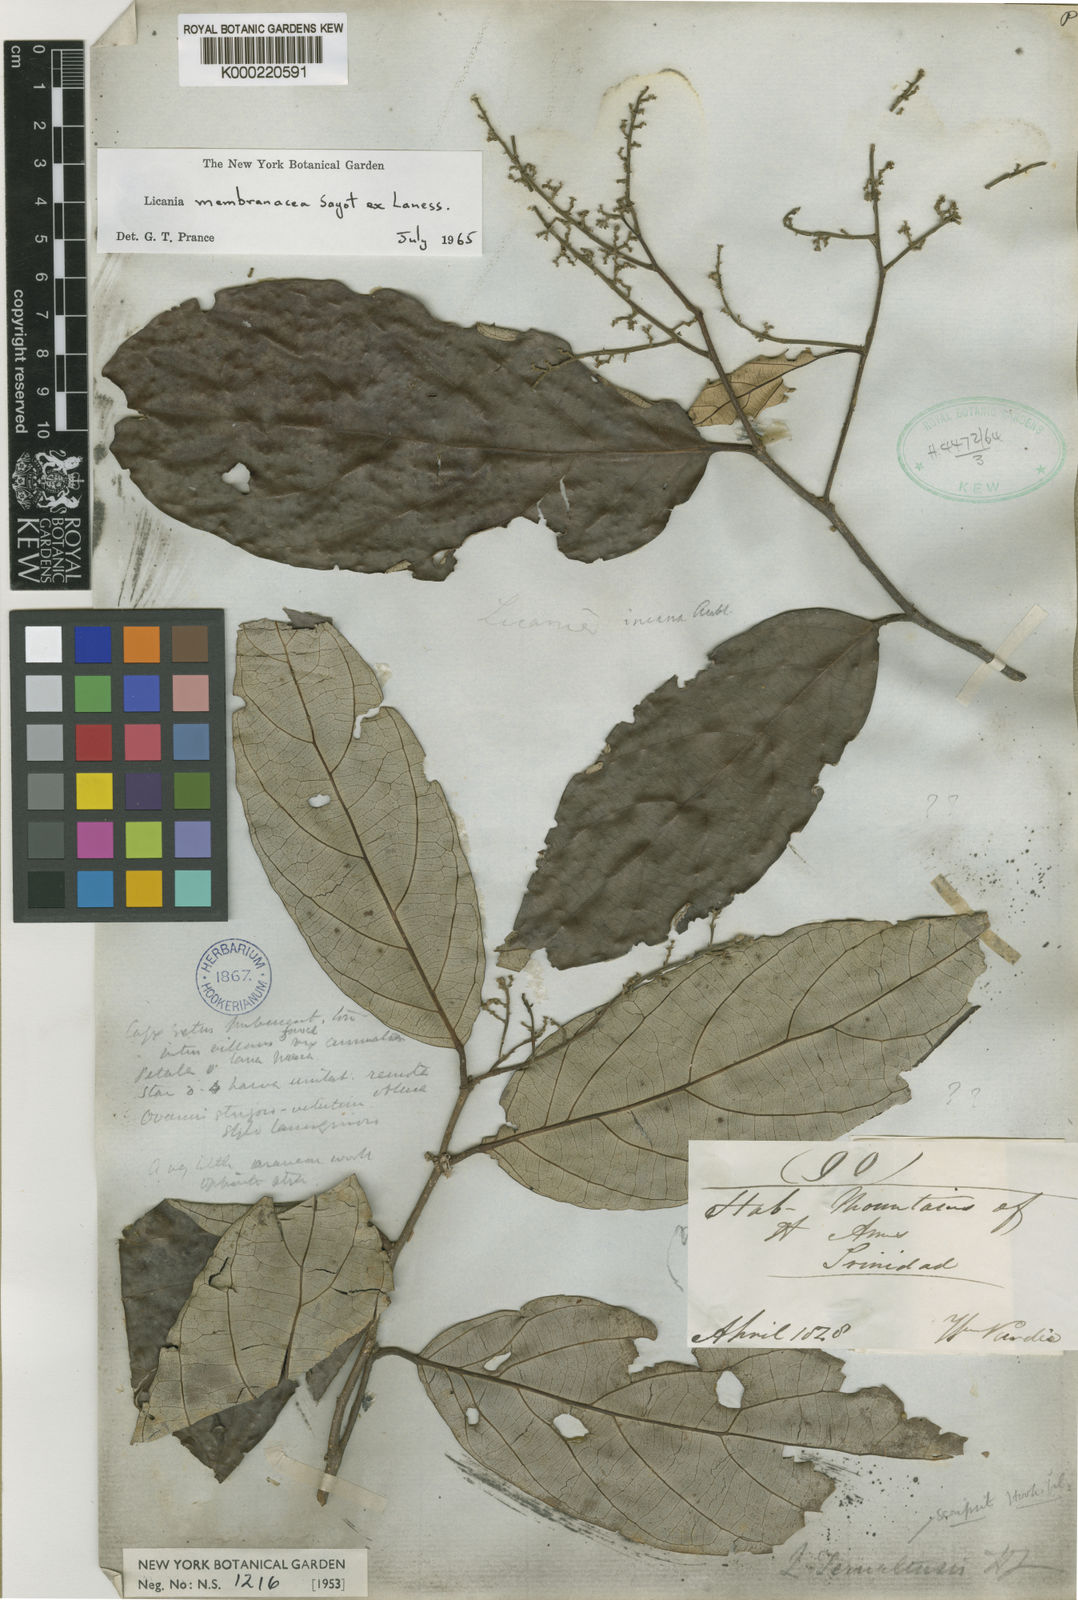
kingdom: Plantae
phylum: Tracheophyta
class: Magnoliopsida
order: Malpighiales
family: Chrysobalanaceae
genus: Licania
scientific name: Licania membranacea
